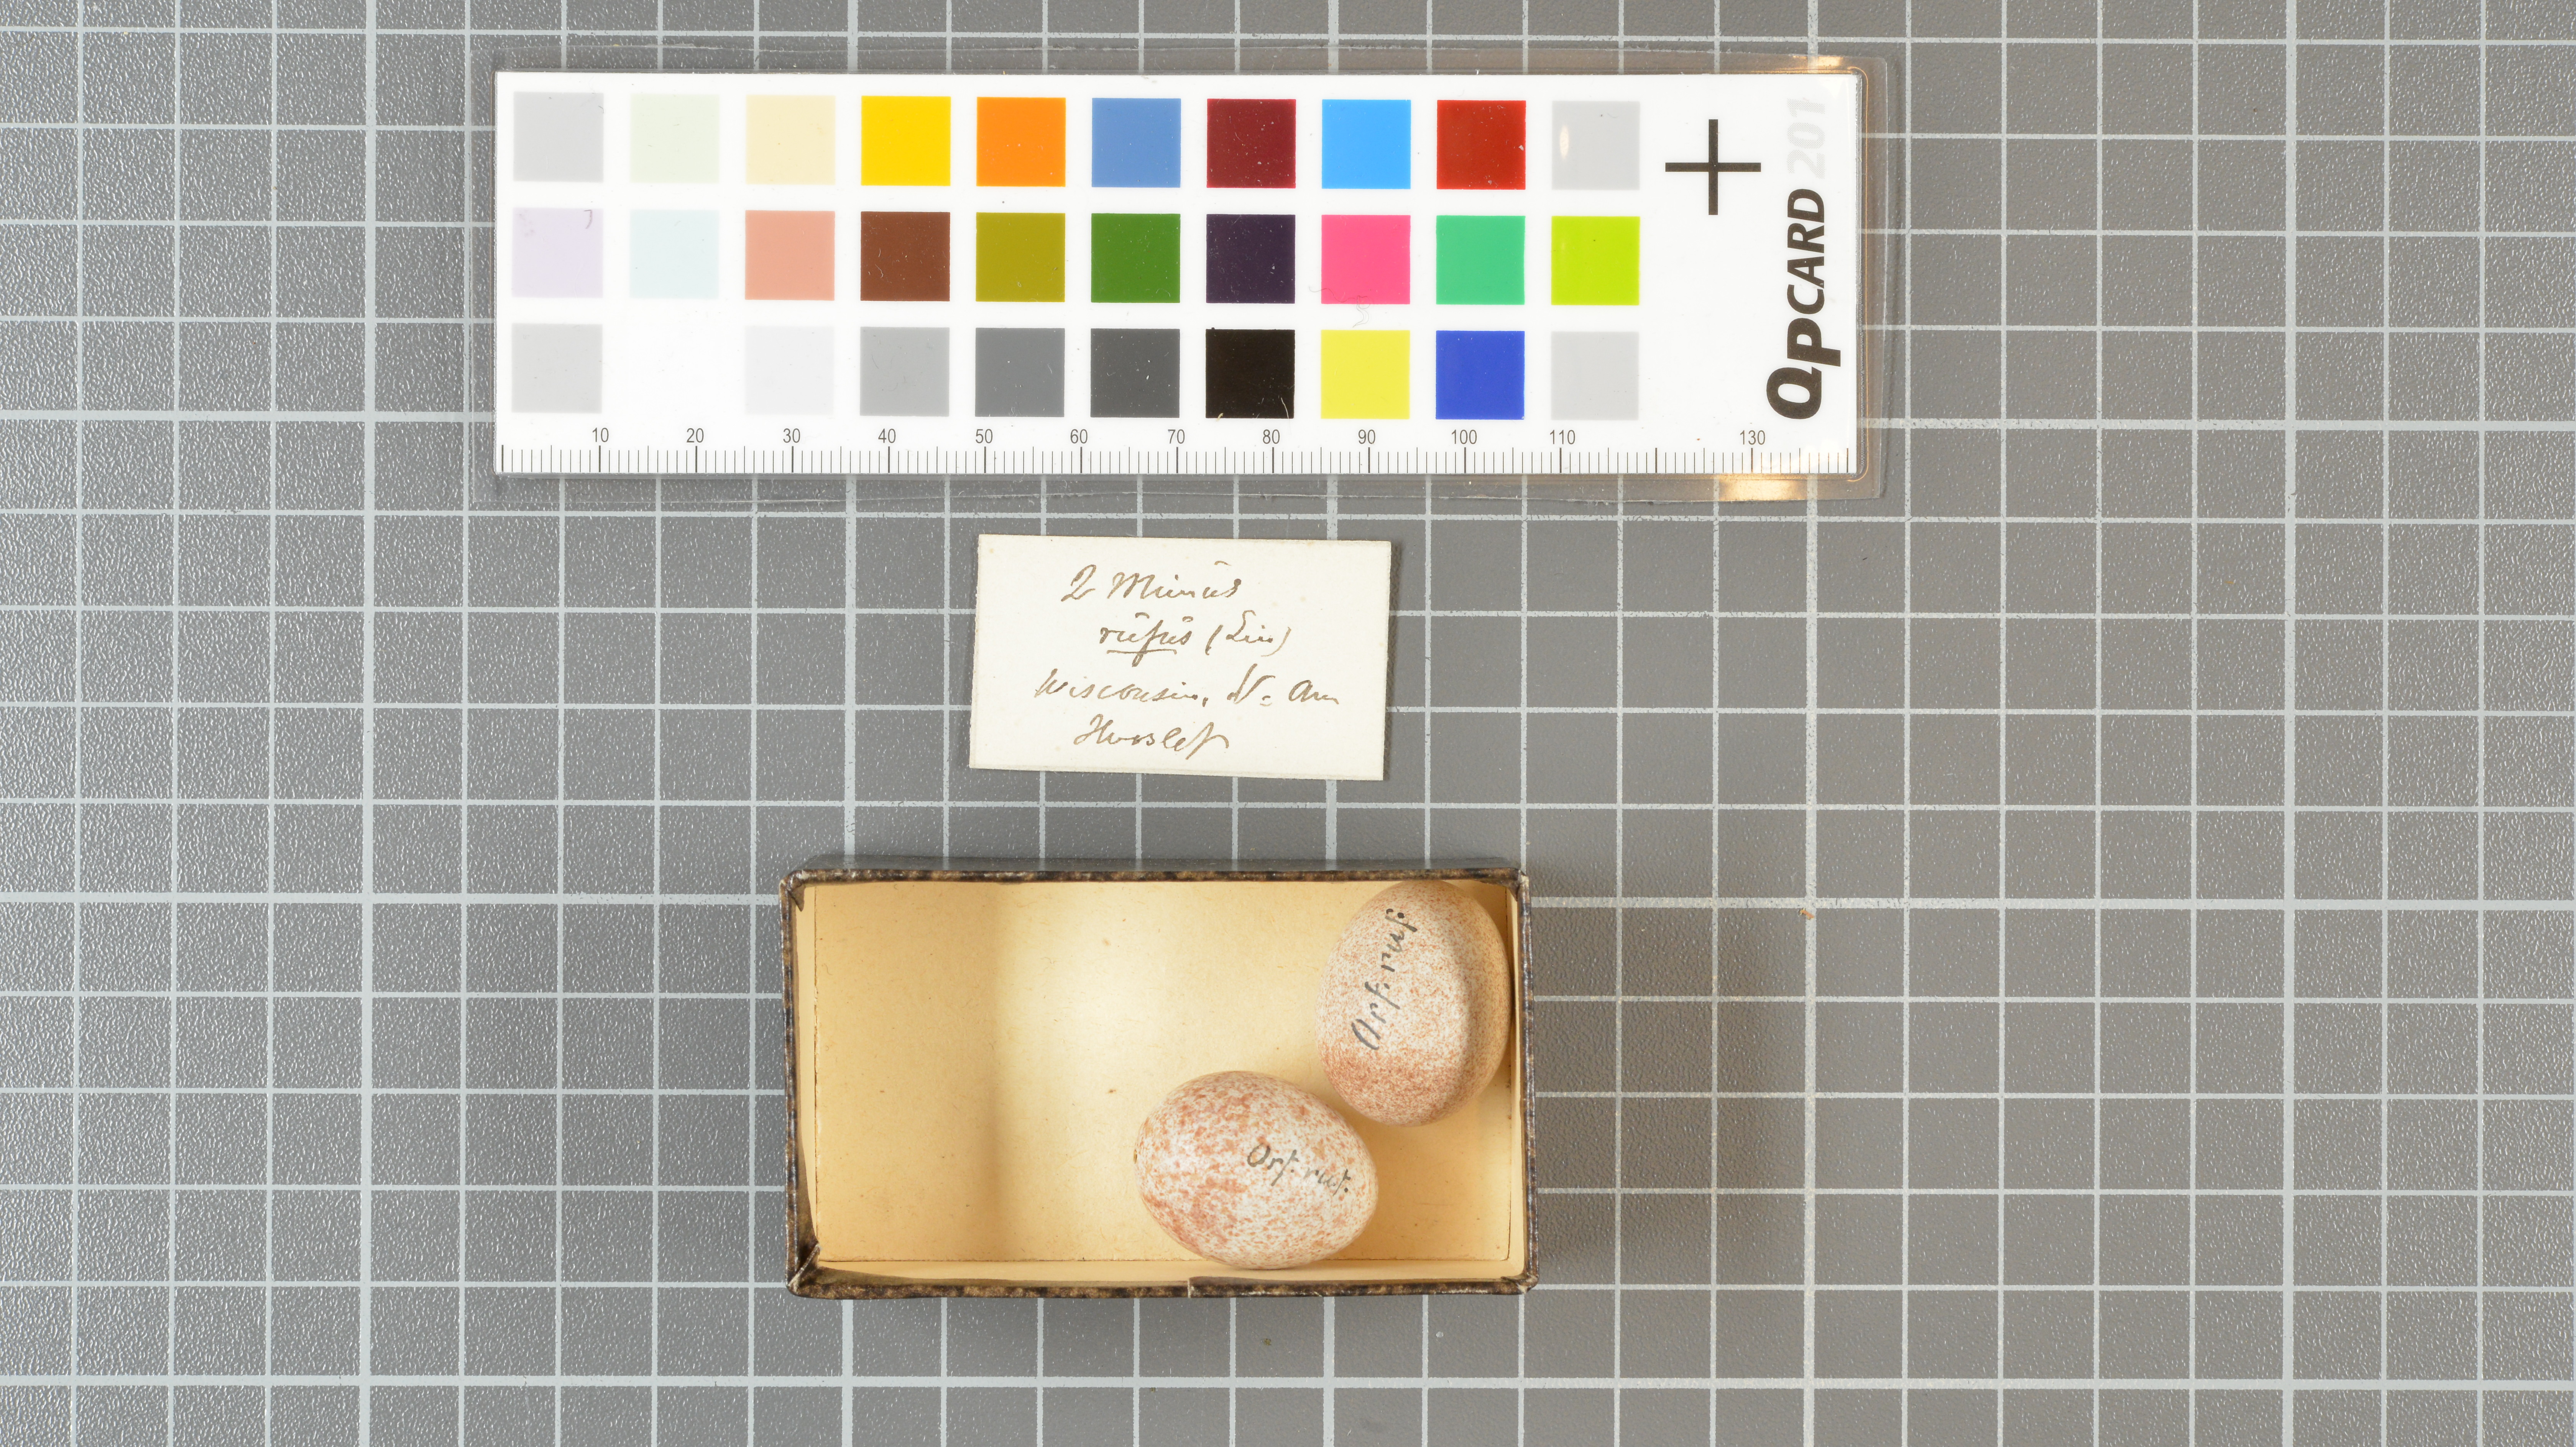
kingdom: Animalia
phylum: Chordata
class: Aves
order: Passeriformes
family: Mimidae
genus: Toxostoma
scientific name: Toxostoma rufum
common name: Brown thrasher
